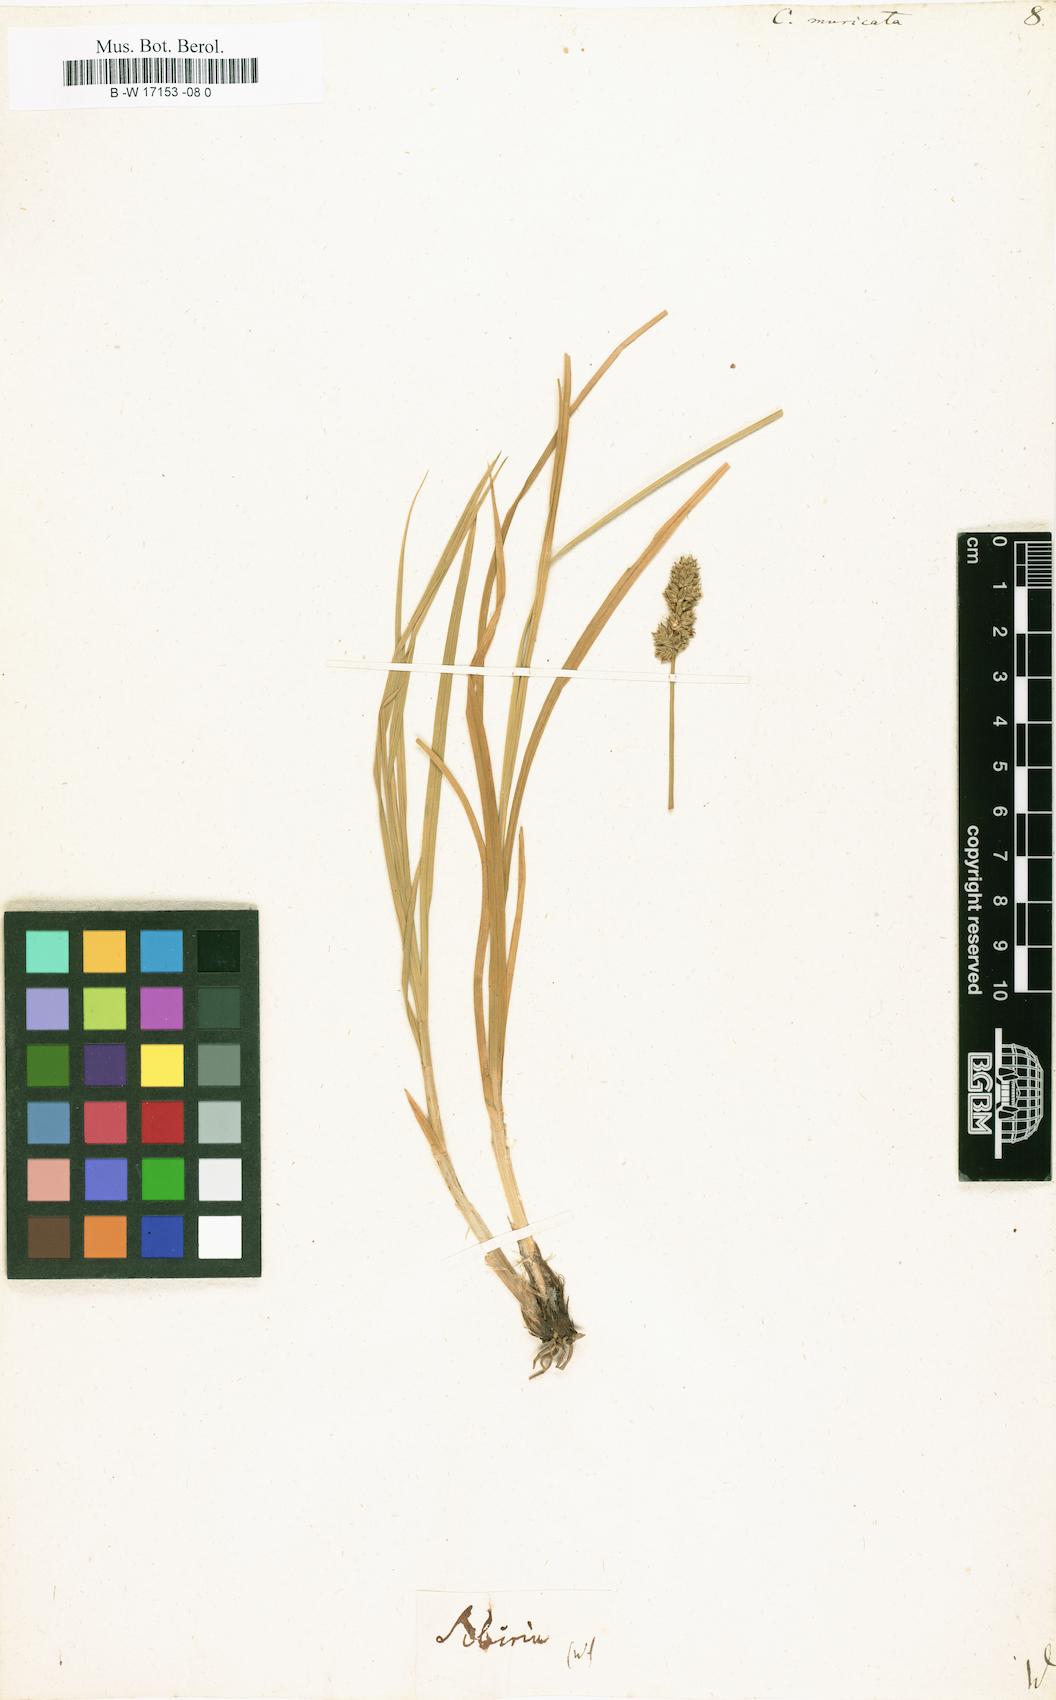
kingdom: Plantae
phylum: Tracheophyta
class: Liliopsida
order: Poales
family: Cyperaceae
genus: Carex
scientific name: Carex muricata
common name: Rough sedge
